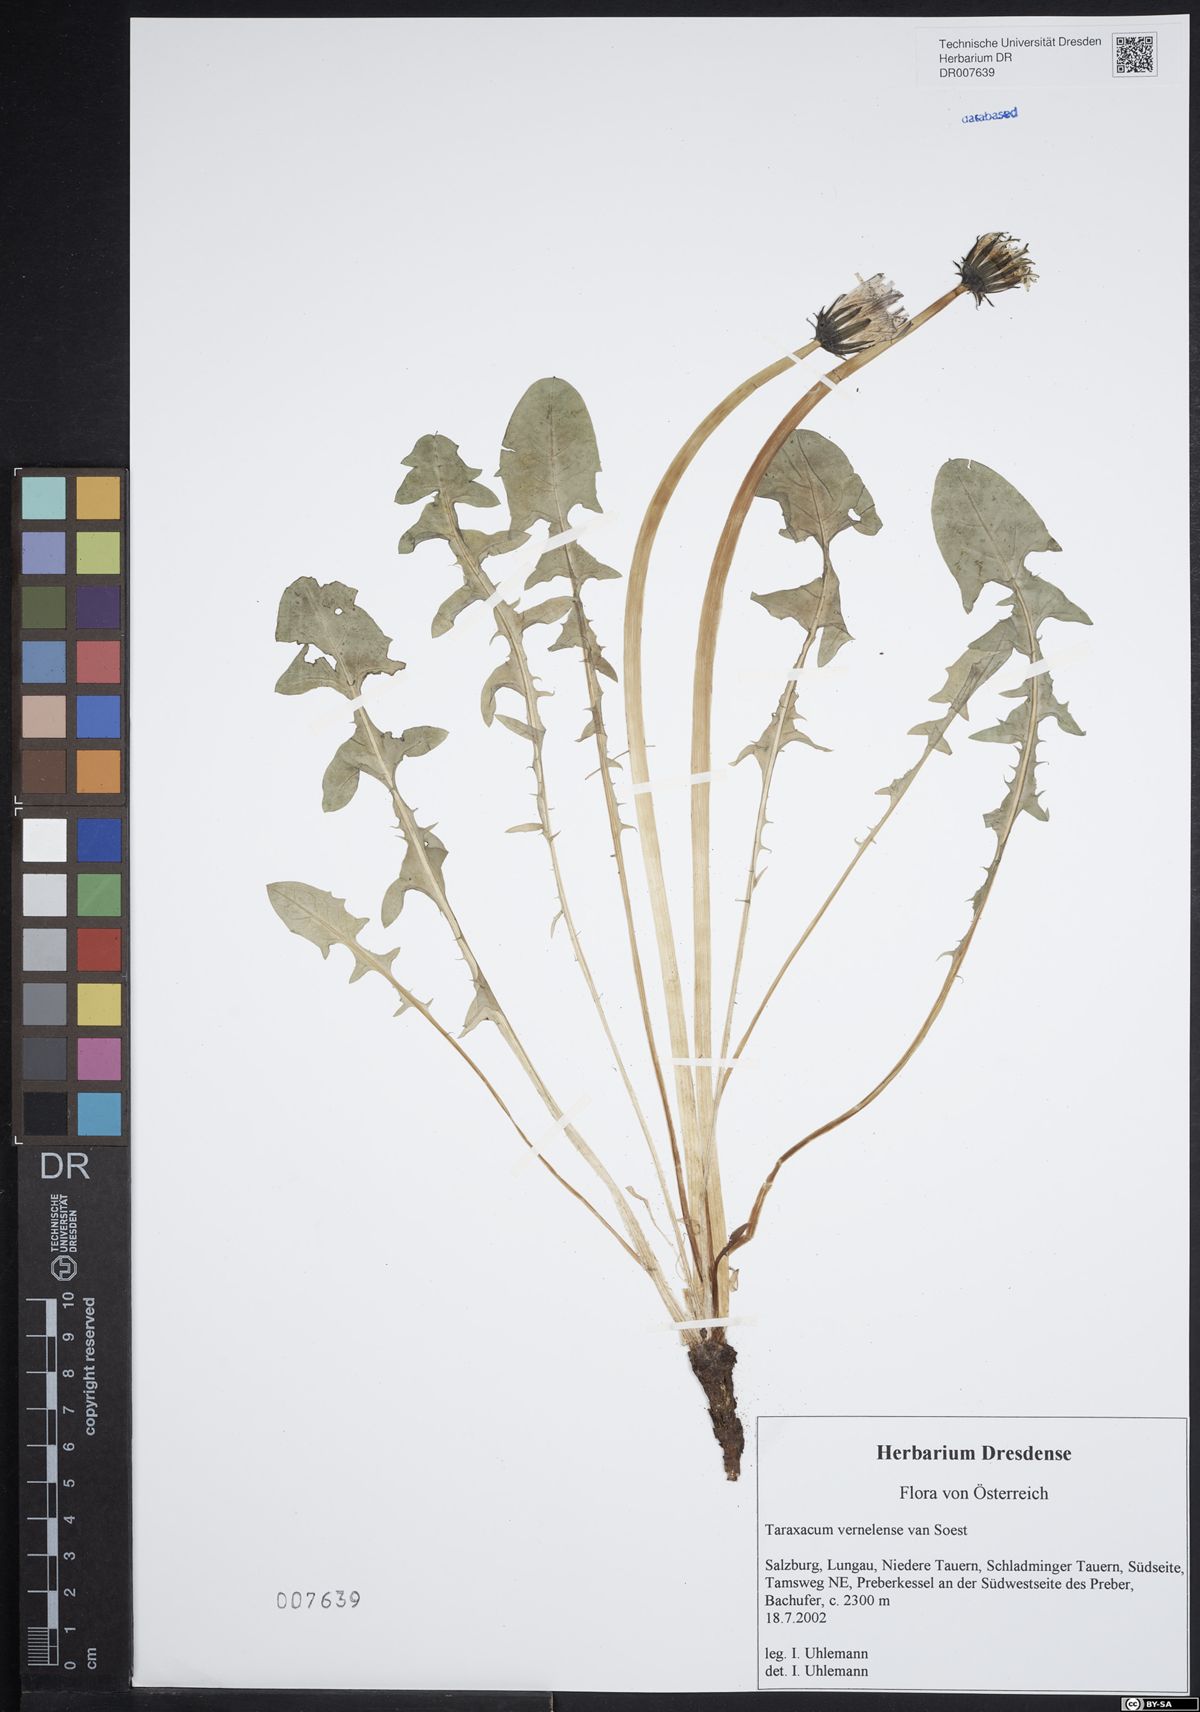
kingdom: Plantae
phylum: Tracheophyta
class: Magnoliopsida
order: Asterales
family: Asteraceae
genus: Taraxacum
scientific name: Taraxacum vernelense
